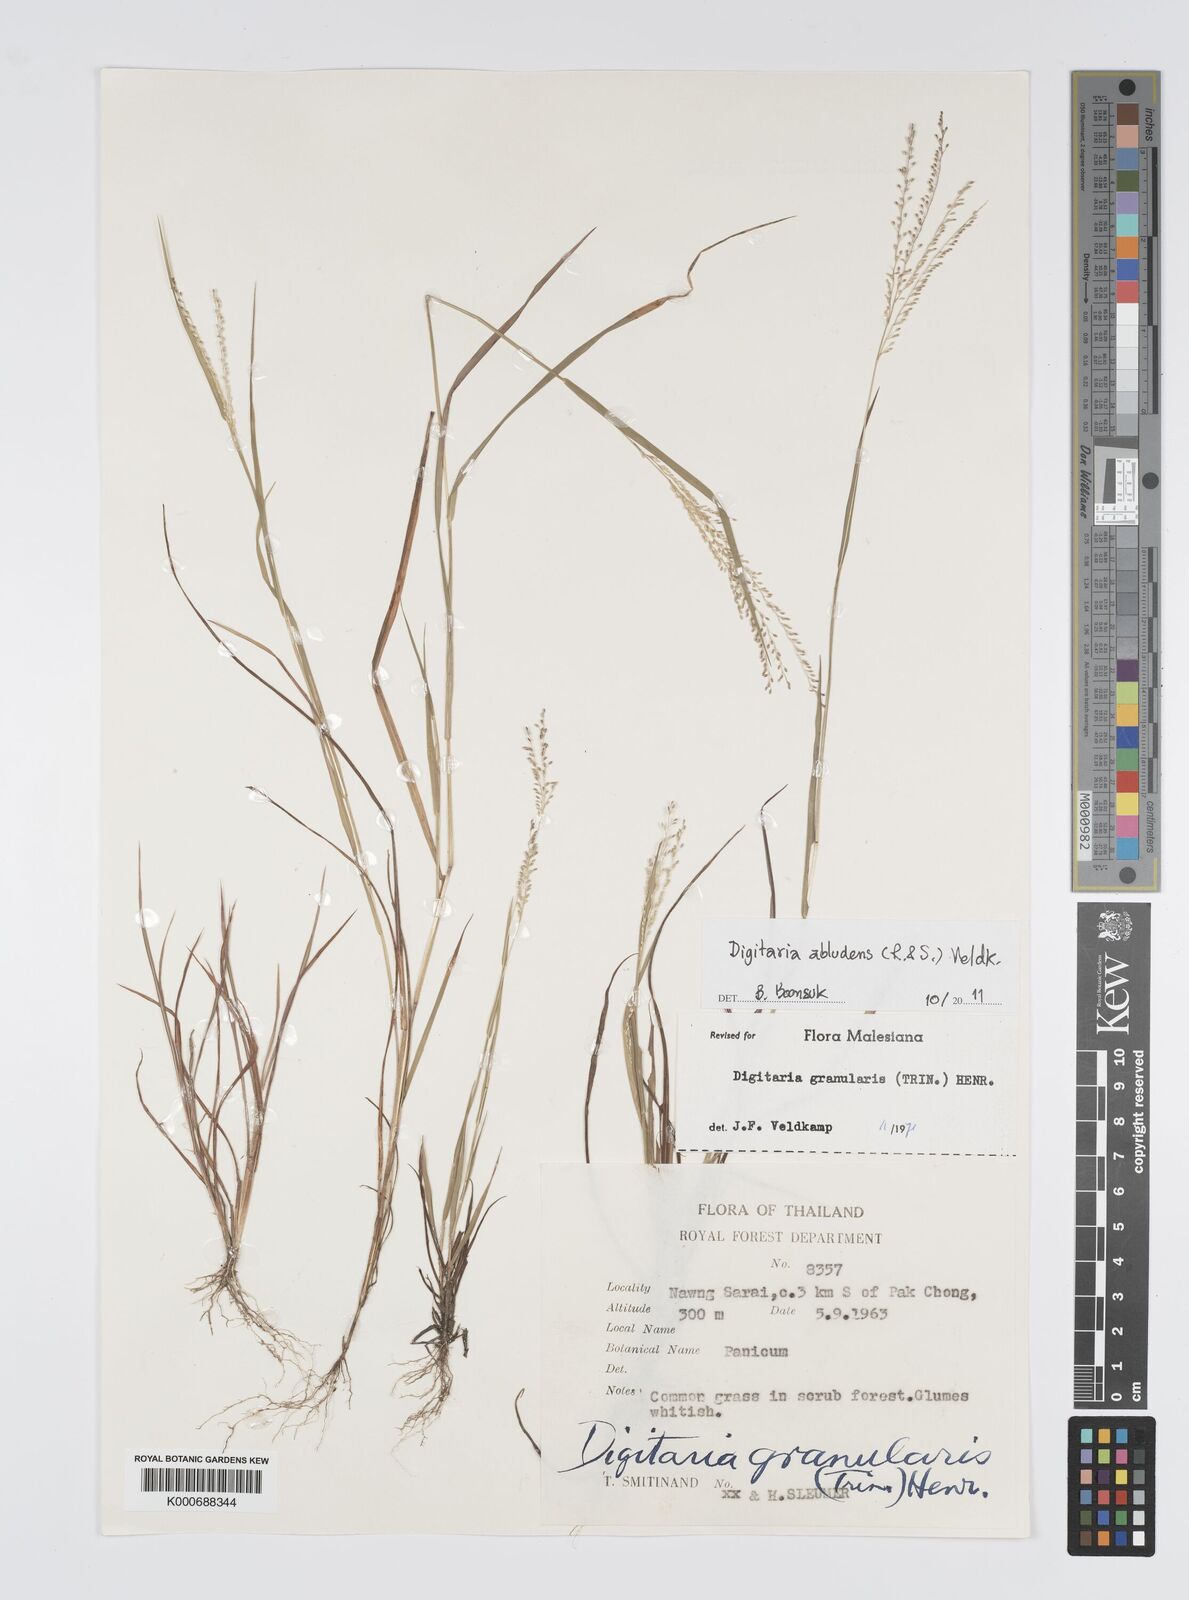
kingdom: Plantae
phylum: Tracheophyta
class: Liliopsida
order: Poales
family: Poaceae
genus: Digitaria
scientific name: Digitaria abludens
